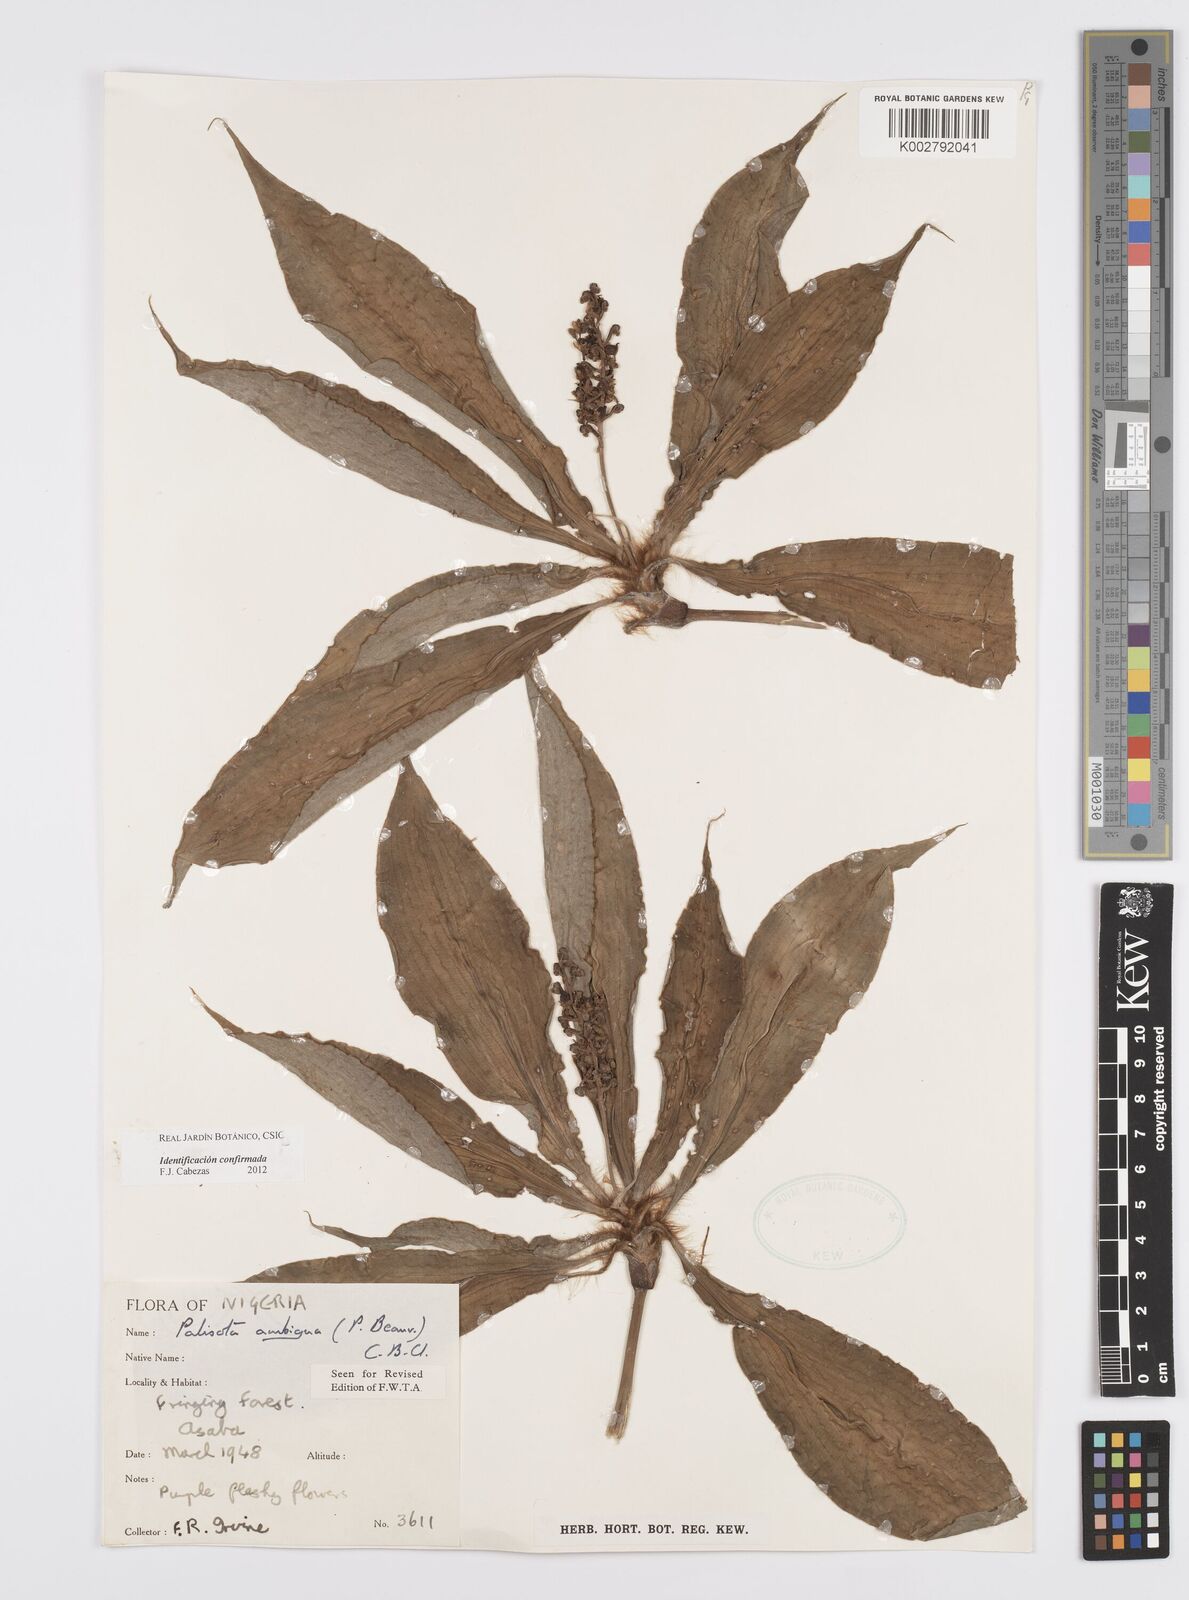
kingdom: Plantae
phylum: Tracheophyta
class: Liliopsida
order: Commelinales
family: Commelinaceae
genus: Palisota
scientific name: Palisota ambigua
